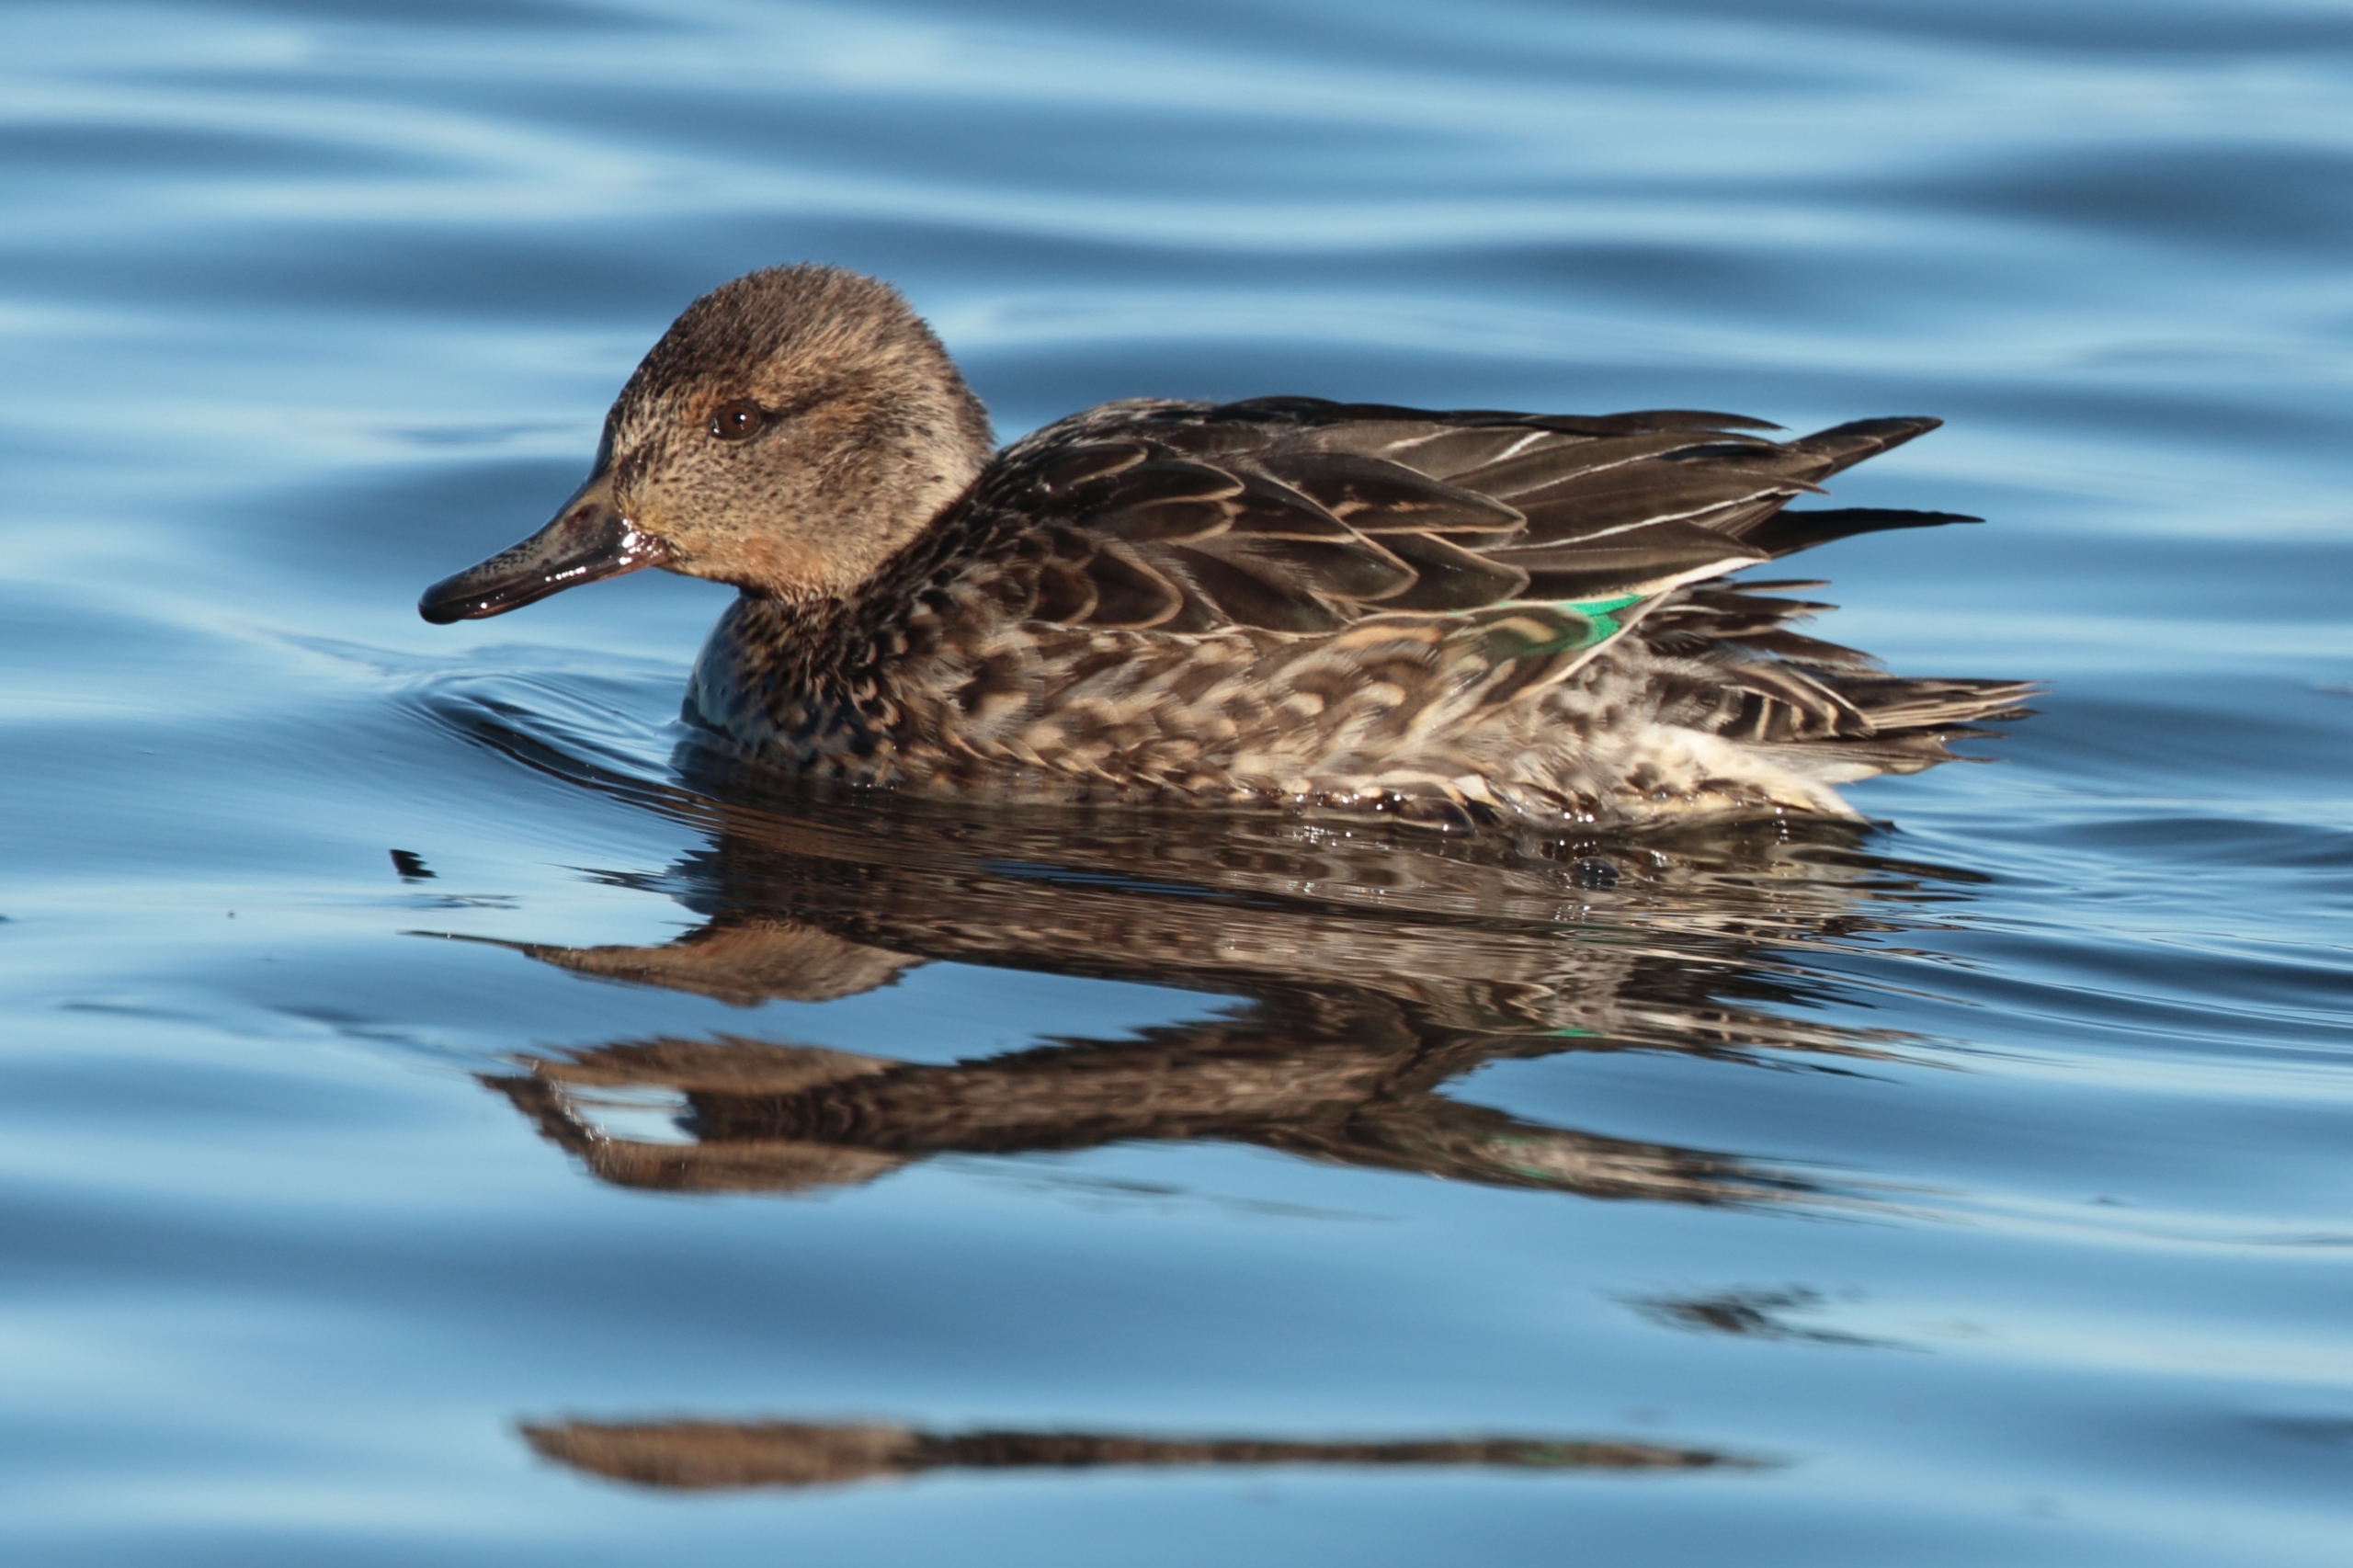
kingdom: Animalia
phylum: Chordata
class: Aves
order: Anseriformes
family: Anatidae
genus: Anas
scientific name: Anas crecca
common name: Krikand
